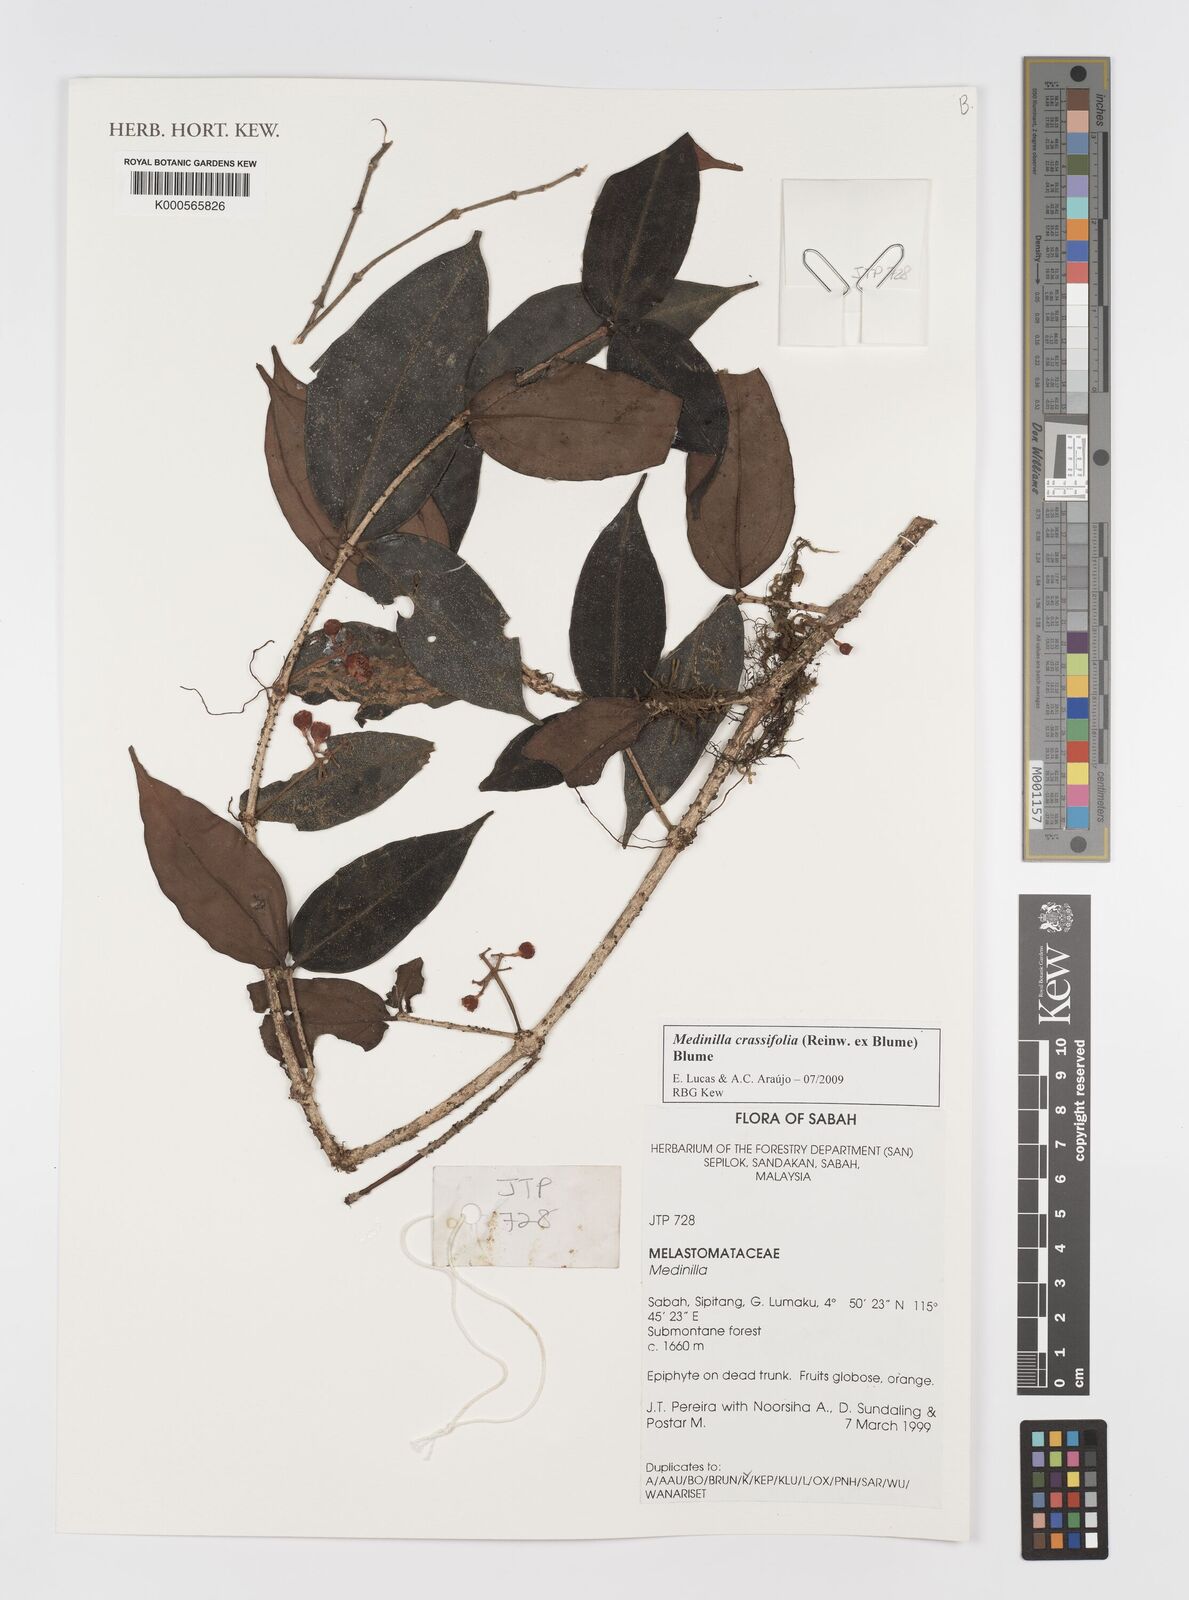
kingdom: Plantae
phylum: Tracheophyta
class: Magnoliopsida
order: Myrtales
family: Melastomataceae
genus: Medinilla
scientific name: Medinilla crassifolia
